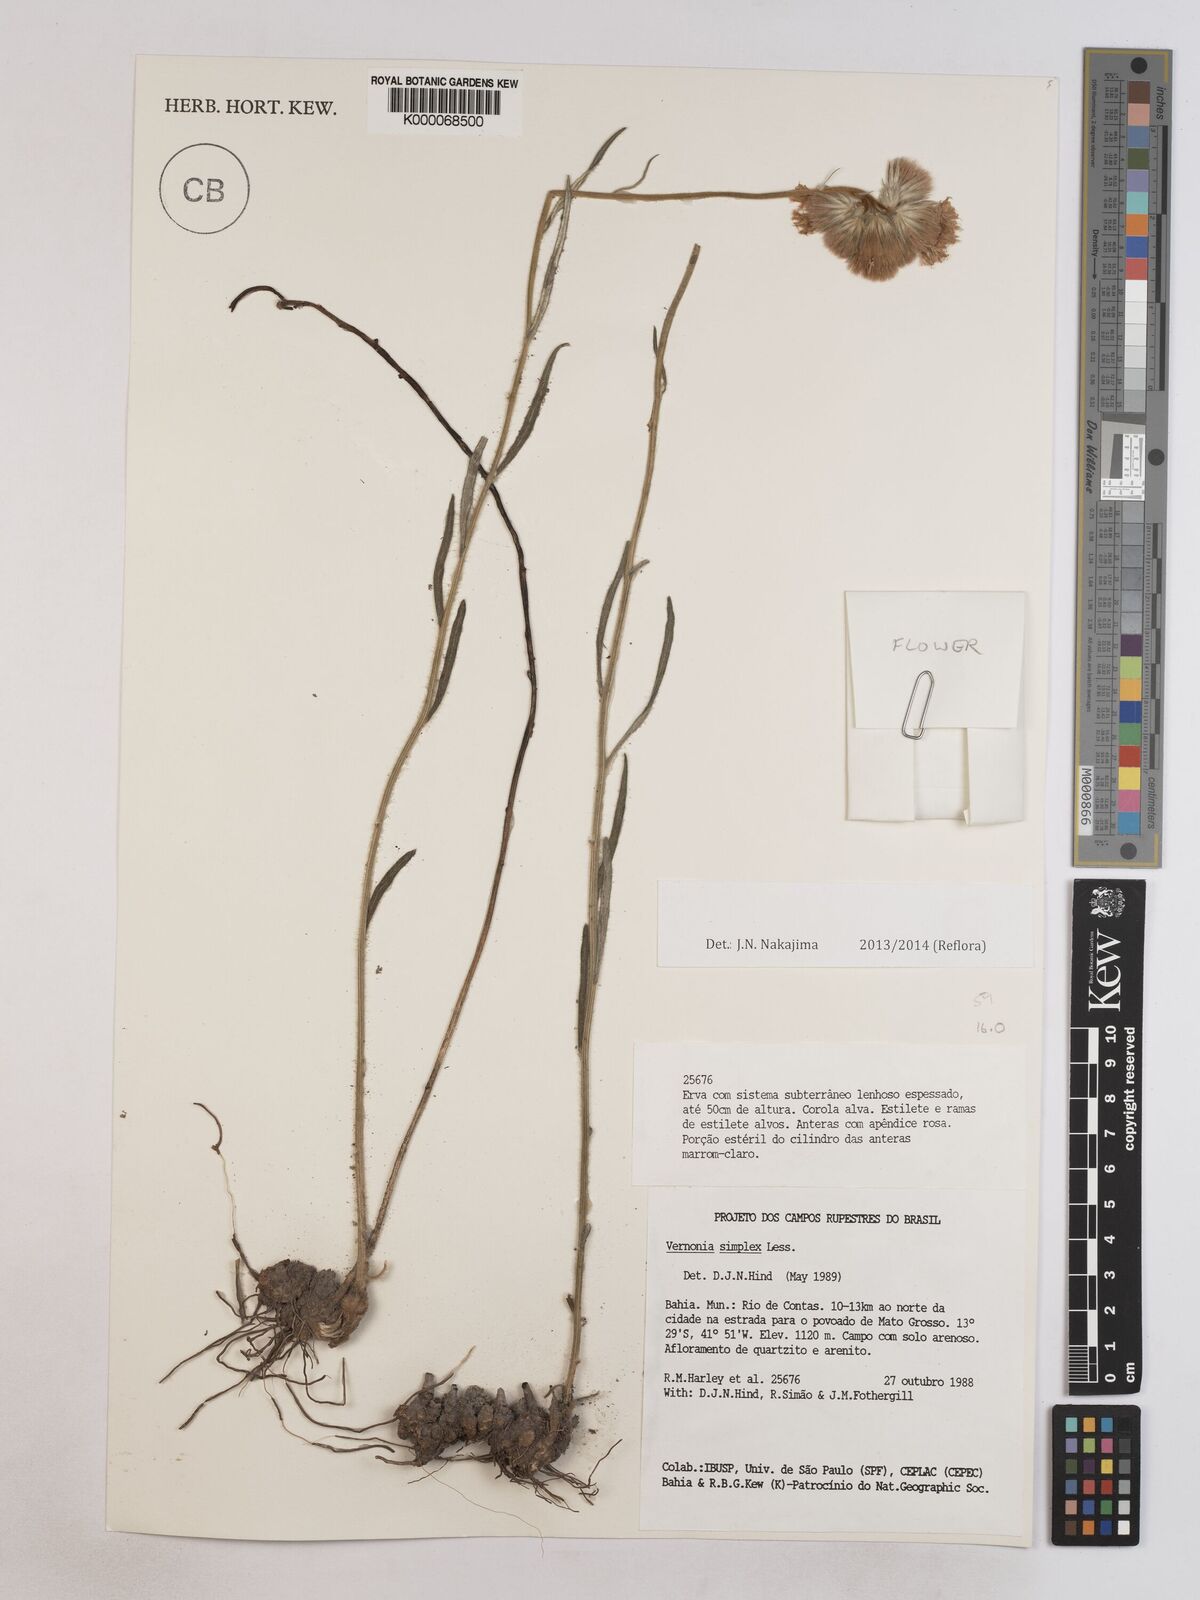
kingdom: Plantae
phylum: Tracheophyta
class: Magnoliopsida
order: Asterales
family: Asteraceae
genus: Chrysolaena
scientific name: Chrysolaena simplex
